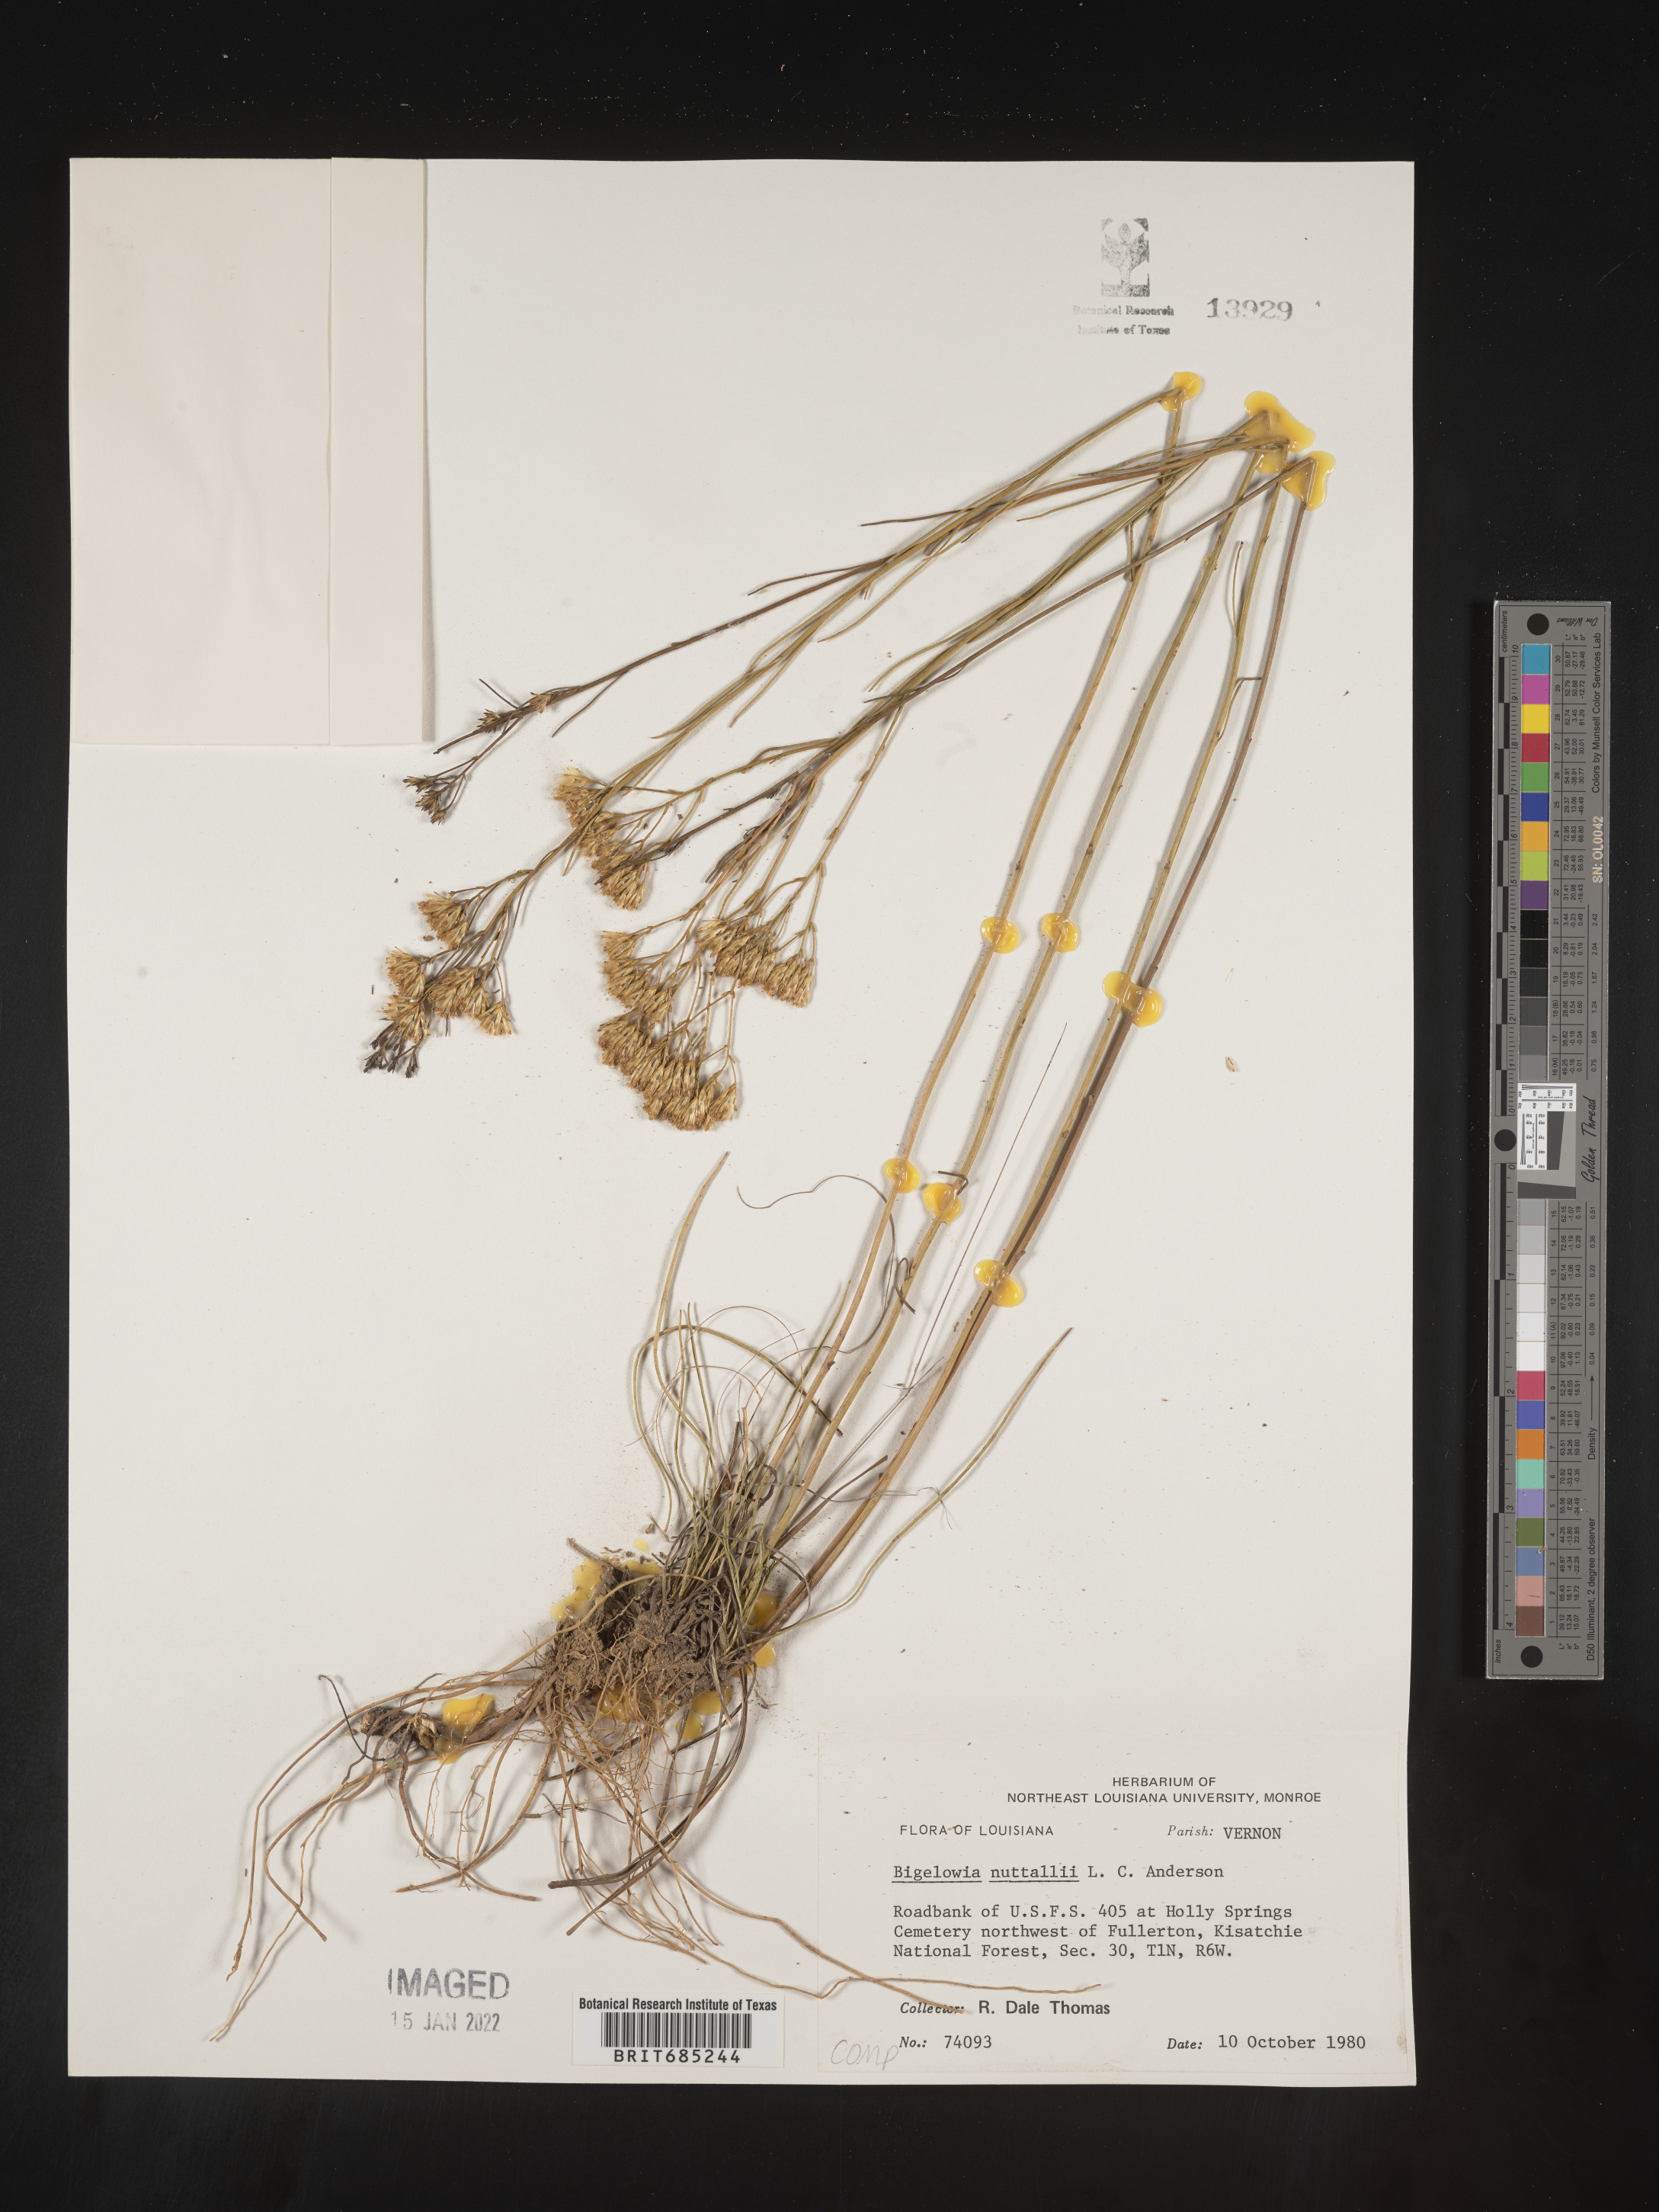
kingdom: Plantae
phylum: Tracheophyta
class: Magnoliopsida
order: Asterales
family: Asteraceae
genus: Bigelowia
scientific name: Bigelowia nuttallii
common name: Nuttall's rayless-goldenrod
